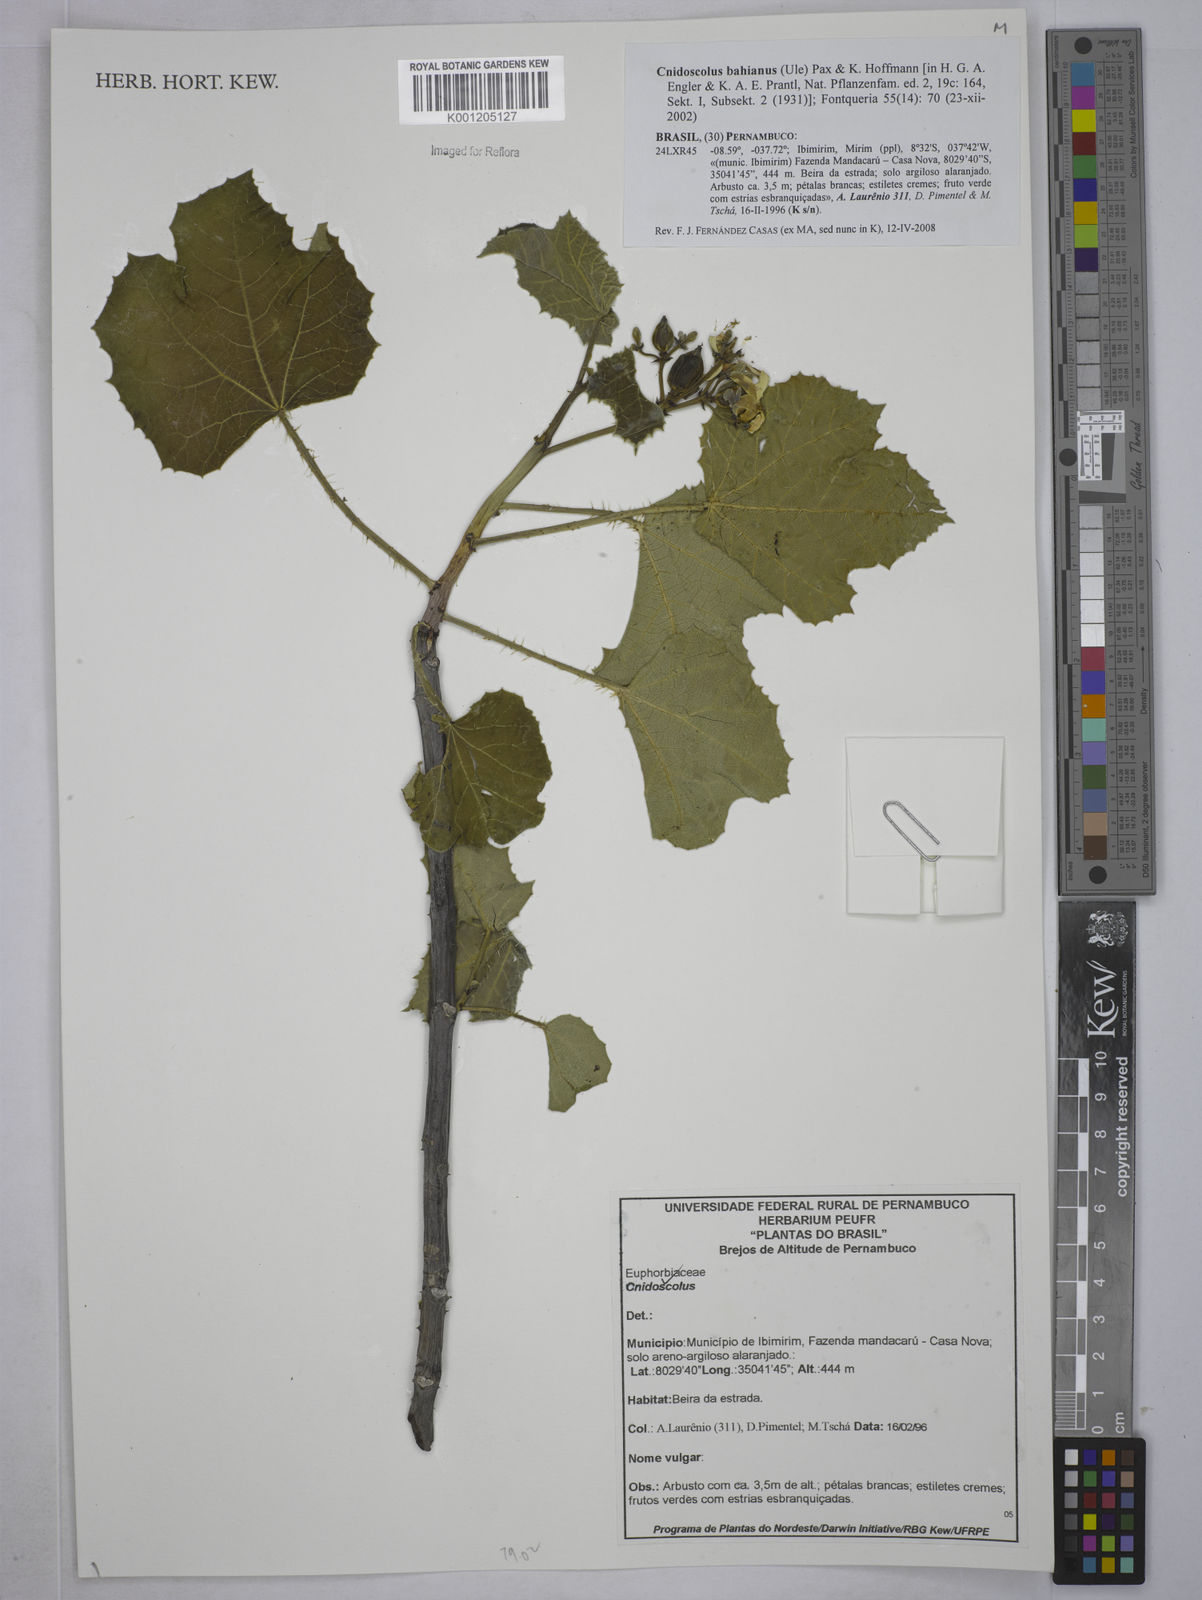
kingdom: Plantae
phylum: Tracheophyta
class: Magnoliopsida
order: Malpighiales
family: Euphorbiaceae
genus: Cnidoscolus
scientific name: Cnidoscolus bahianus
